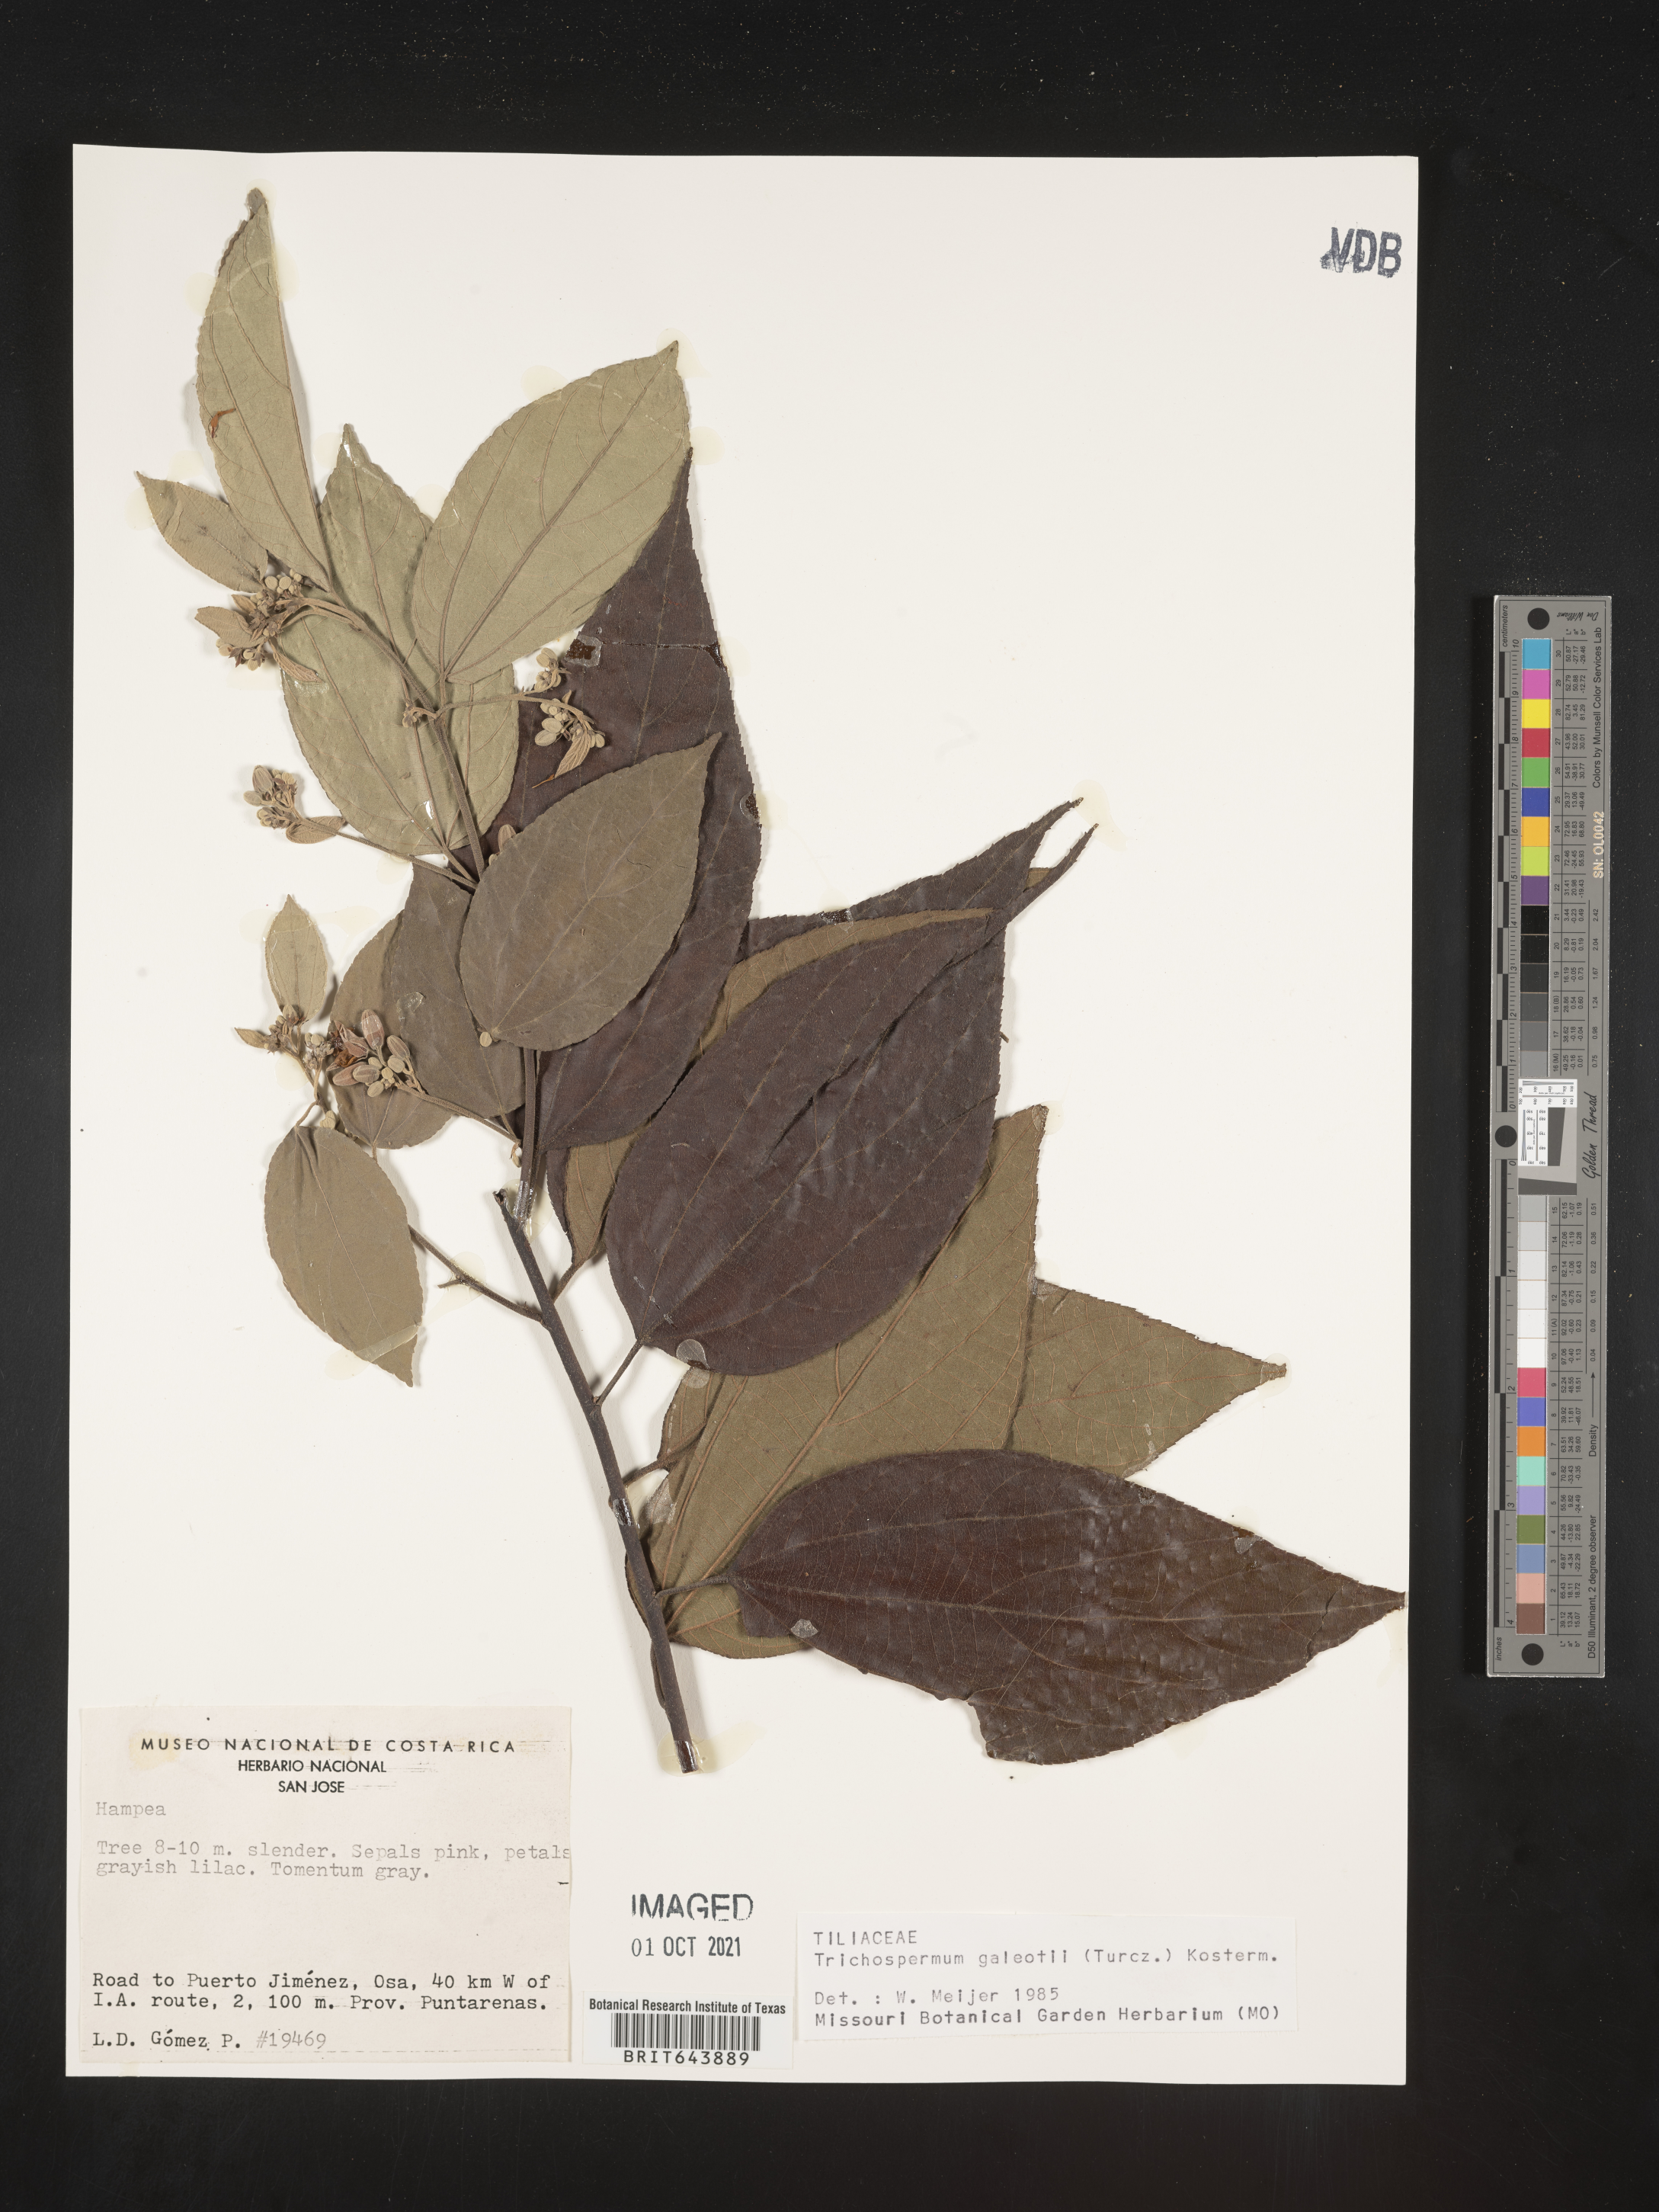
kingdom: Plantae
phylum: Tracheophyta
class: Magnoliopsida
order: Malvales
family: Malvaceae
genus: Trichospermum
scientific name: Trichospermum
